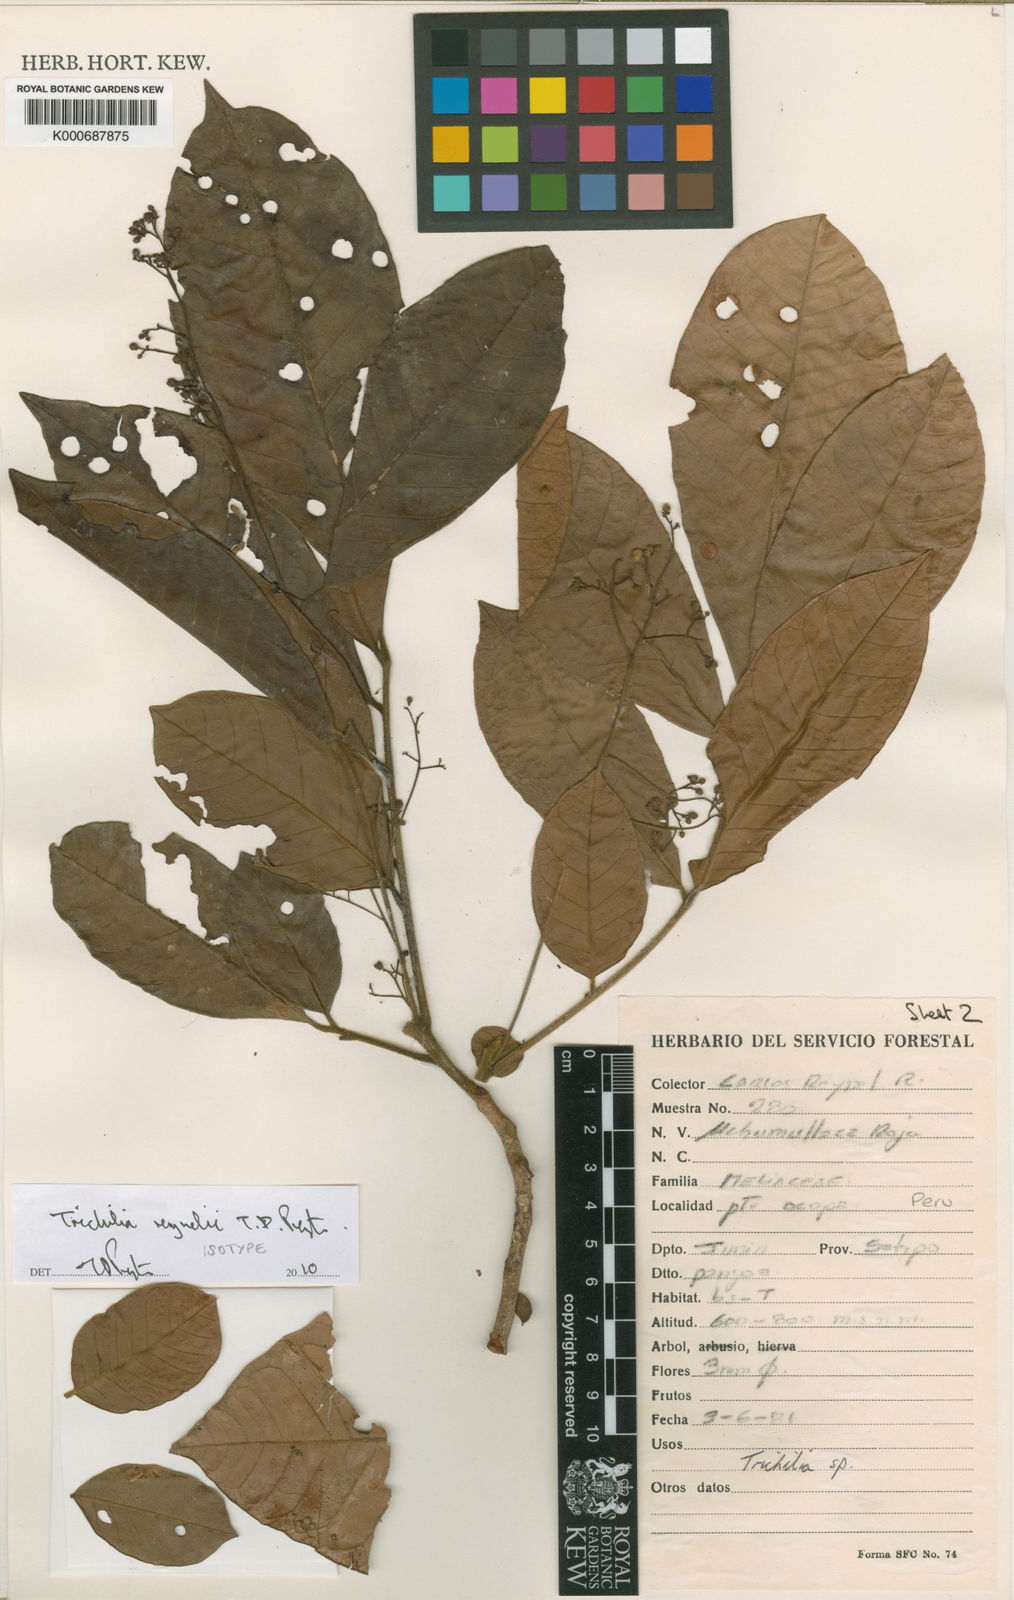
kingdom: Plantae
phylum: Tracheophyta
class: Magnoliopsida
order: Sapindales
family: Meliaceae
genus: Trichilia
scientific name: Trichilia
